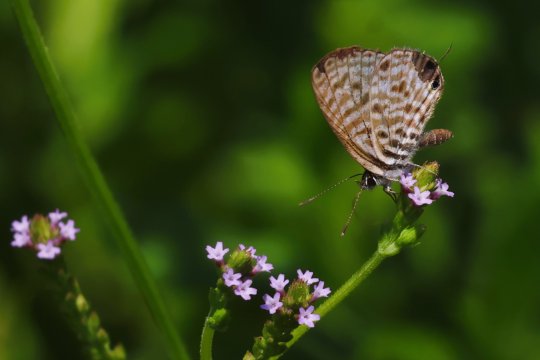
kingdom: Animalia
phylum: Arthropoda
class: Insecta
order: Lepidoptera
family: Lycaenidae
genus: Leptotes
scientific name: Leptotes pirithous
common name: Lang's Short-tailed Blue
